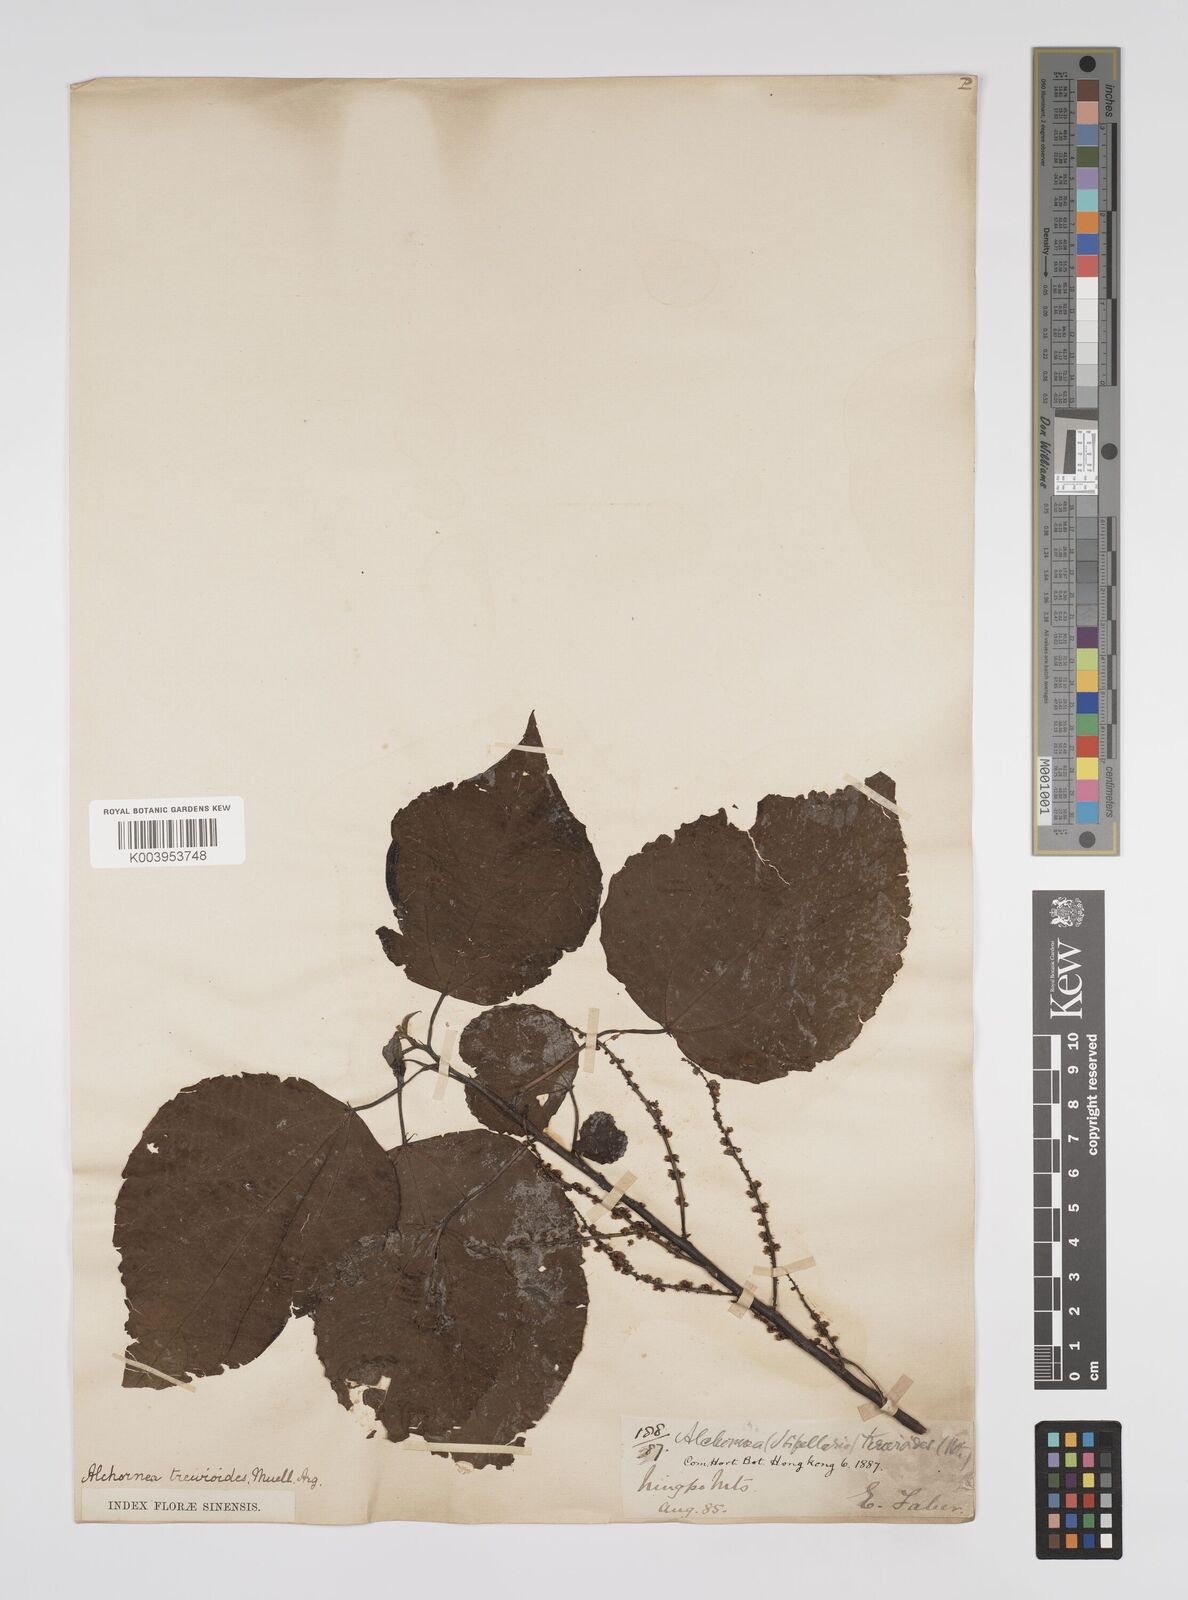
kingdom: Plantae
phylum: Tracheophyta
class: Magnoliopsida
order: Malpighiales
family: Euphorbiaceae
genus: Alchornea
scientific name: Alchornea trewioides
